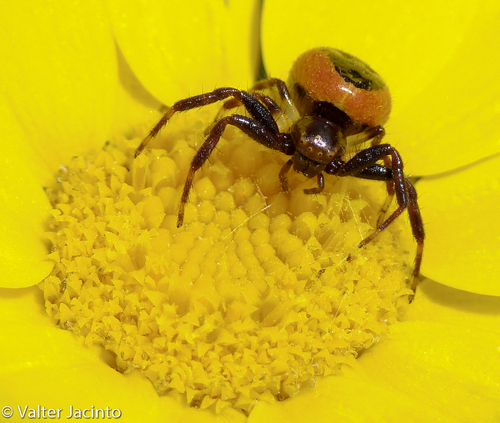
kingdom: Animalia
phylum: Arthropoda
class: Arachnida
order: Araneae
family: Thomisidae
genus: Synema
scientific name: Synema globosum
